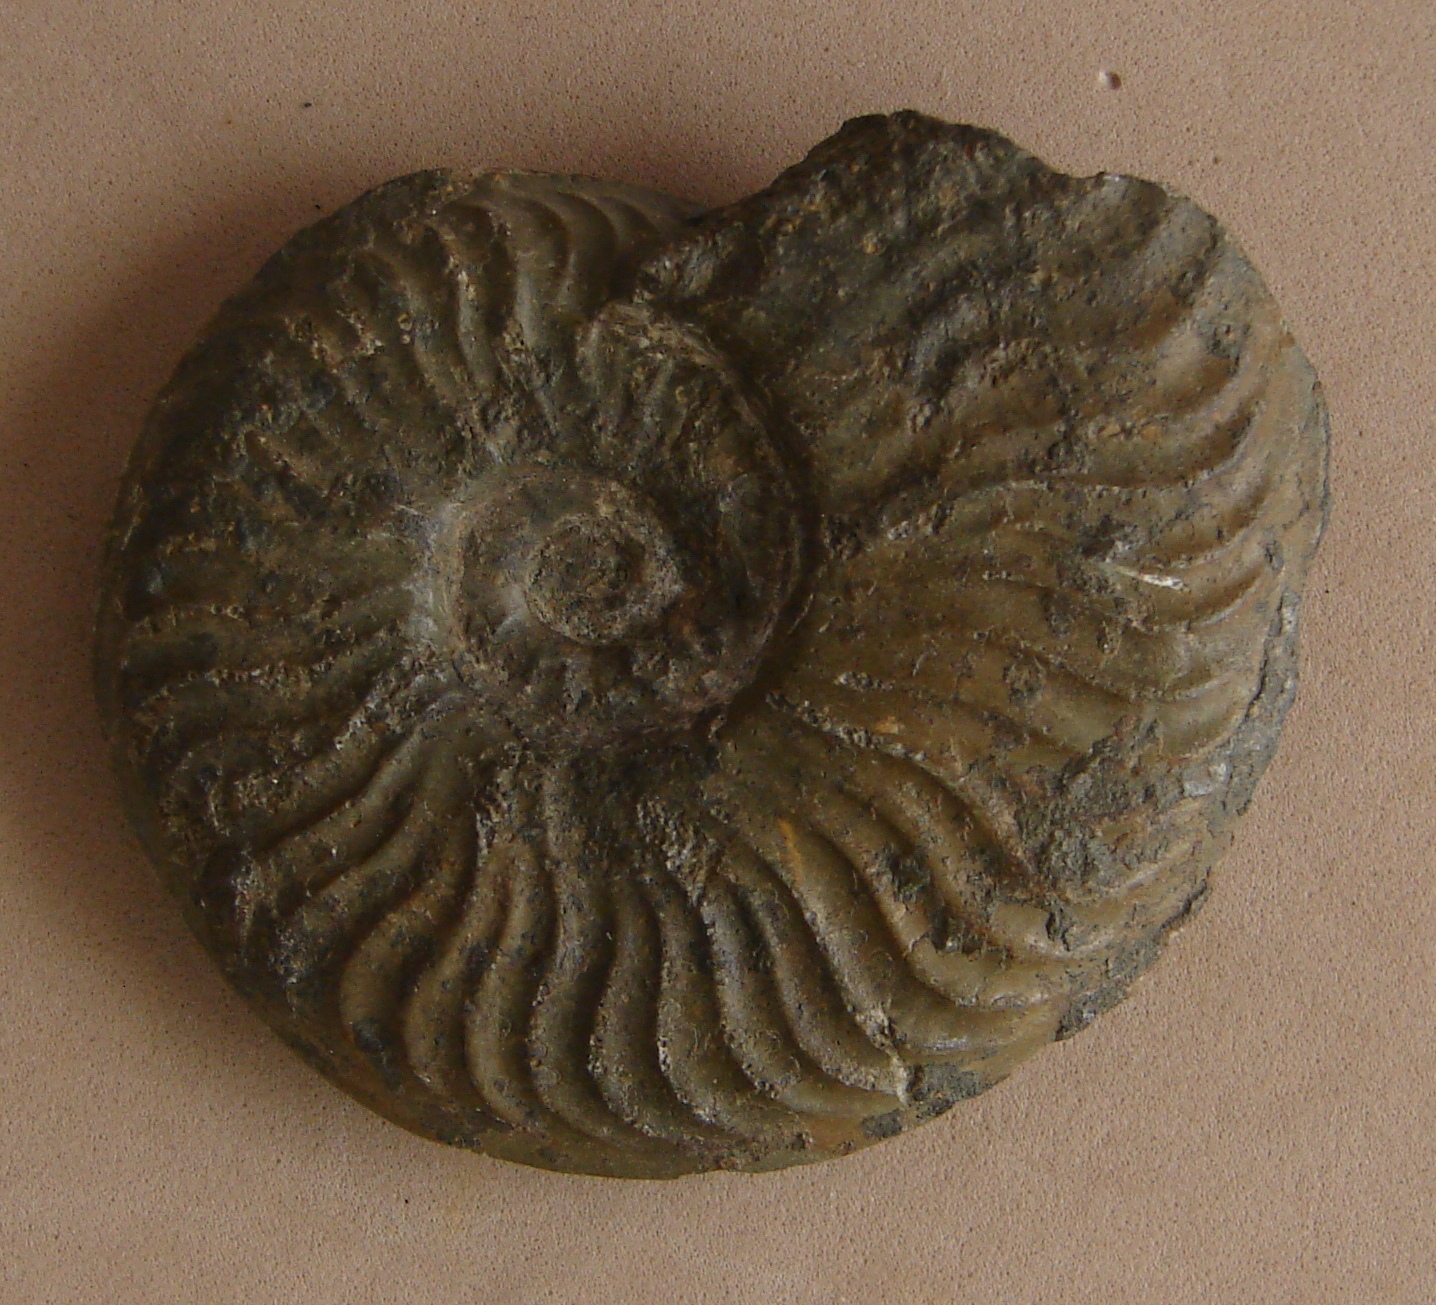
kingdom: Animalia
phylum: Mollusca
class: Cephalopoda
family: Hildoceratidae
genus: Pleydellia
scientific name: Pleydellia aalensis
